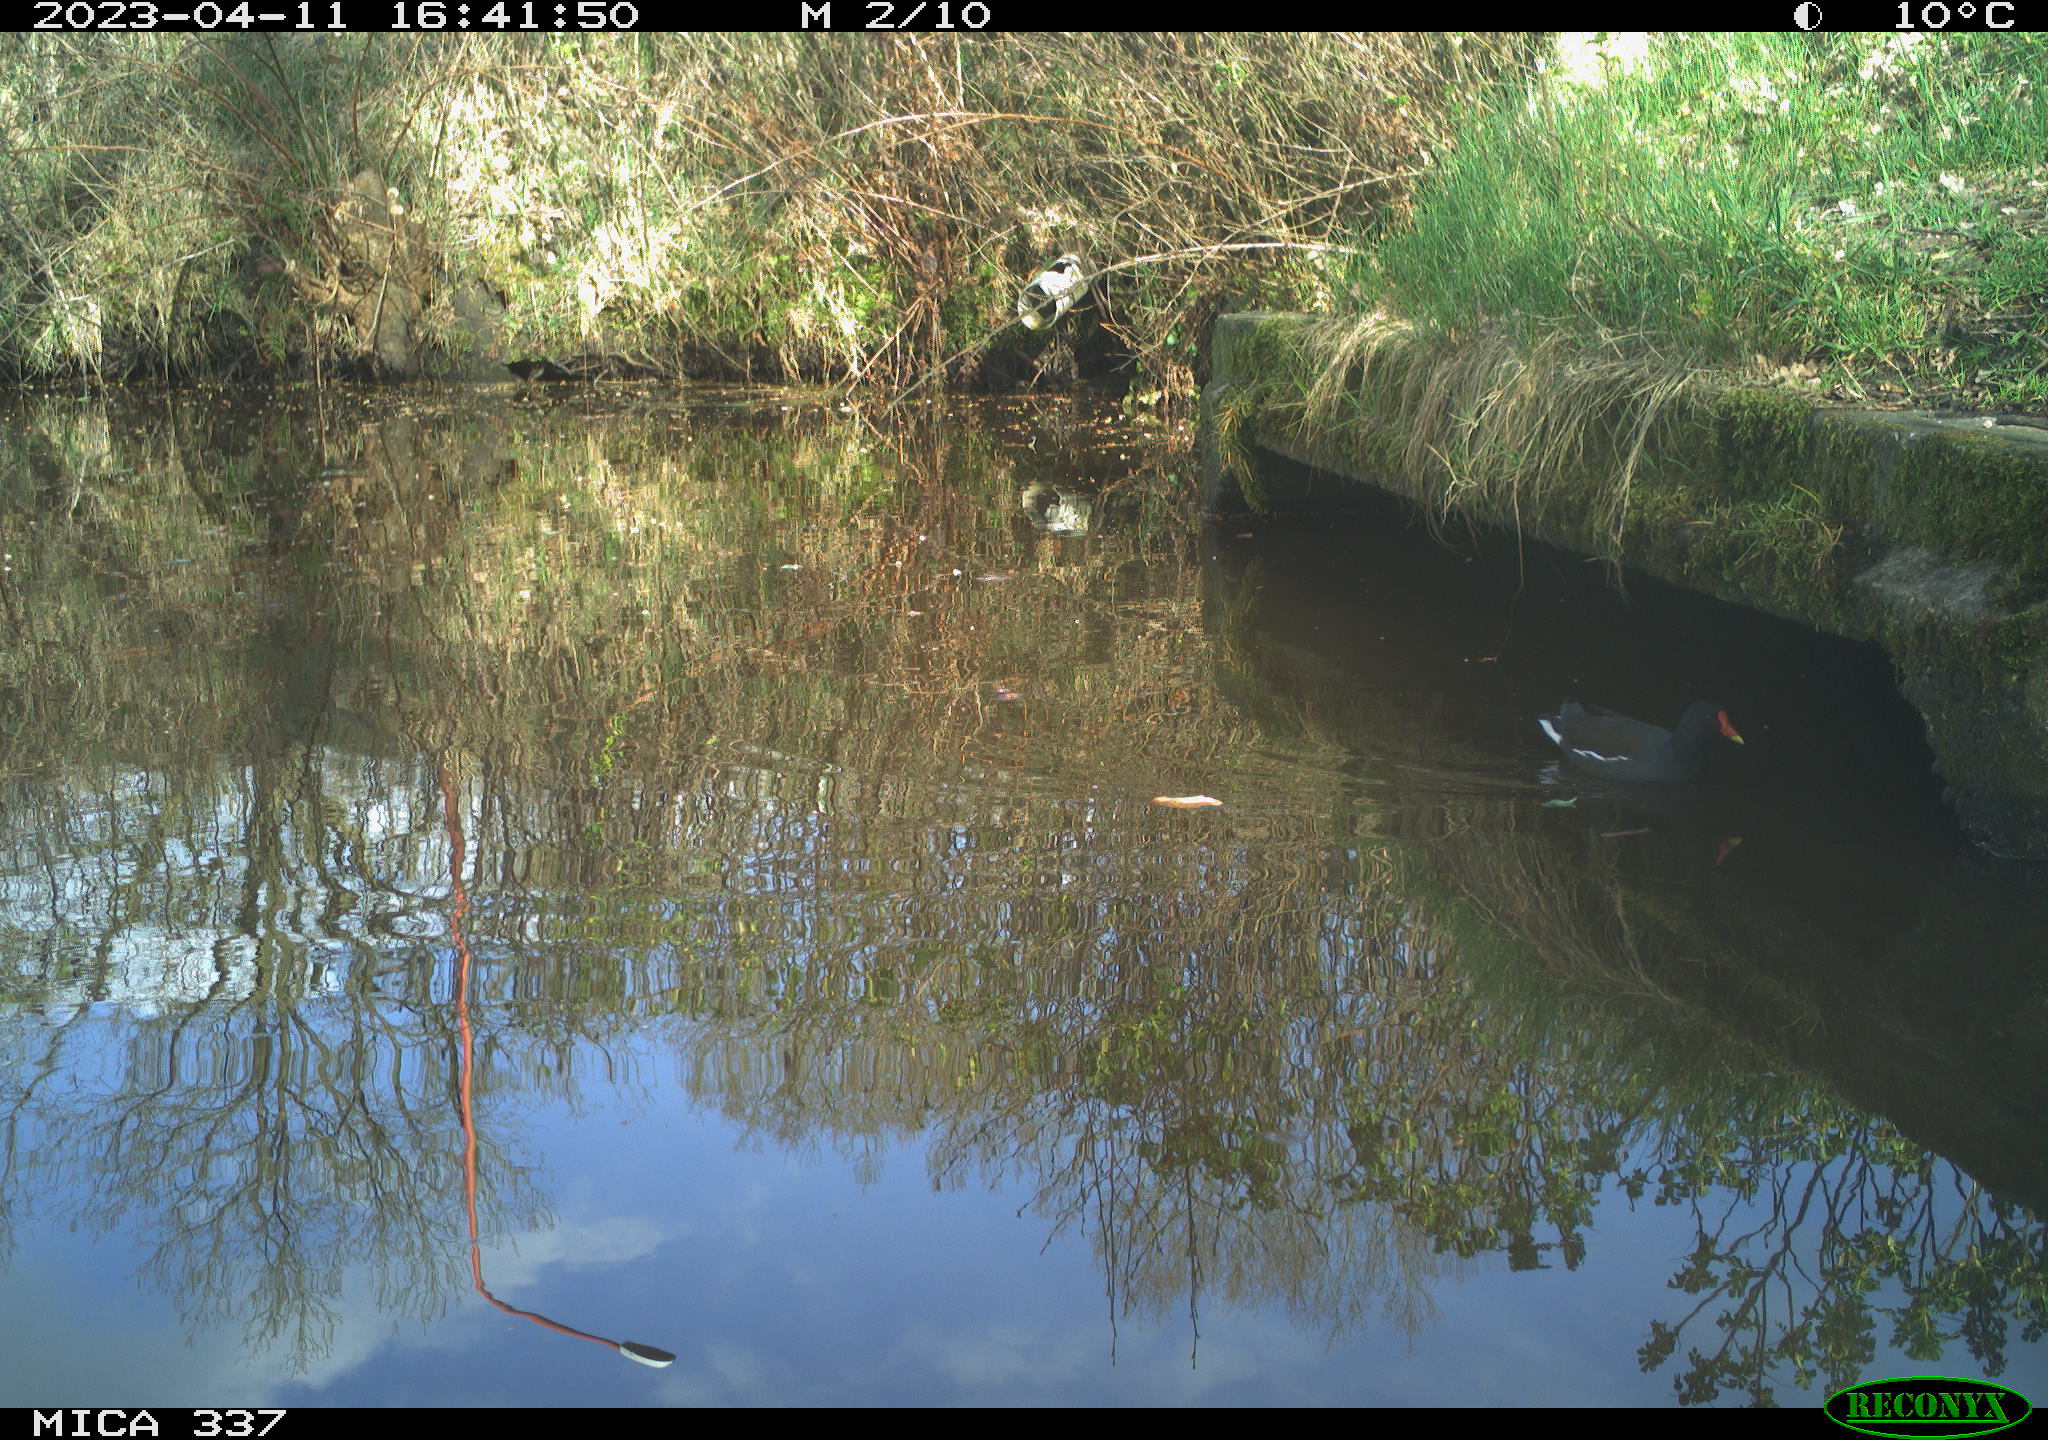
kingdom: Animalia
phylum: Chordata
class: Aves
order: Gruiformes
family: Rallidae
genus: Gallinula
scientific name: Gallinula chloropus
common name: Common moorhen
